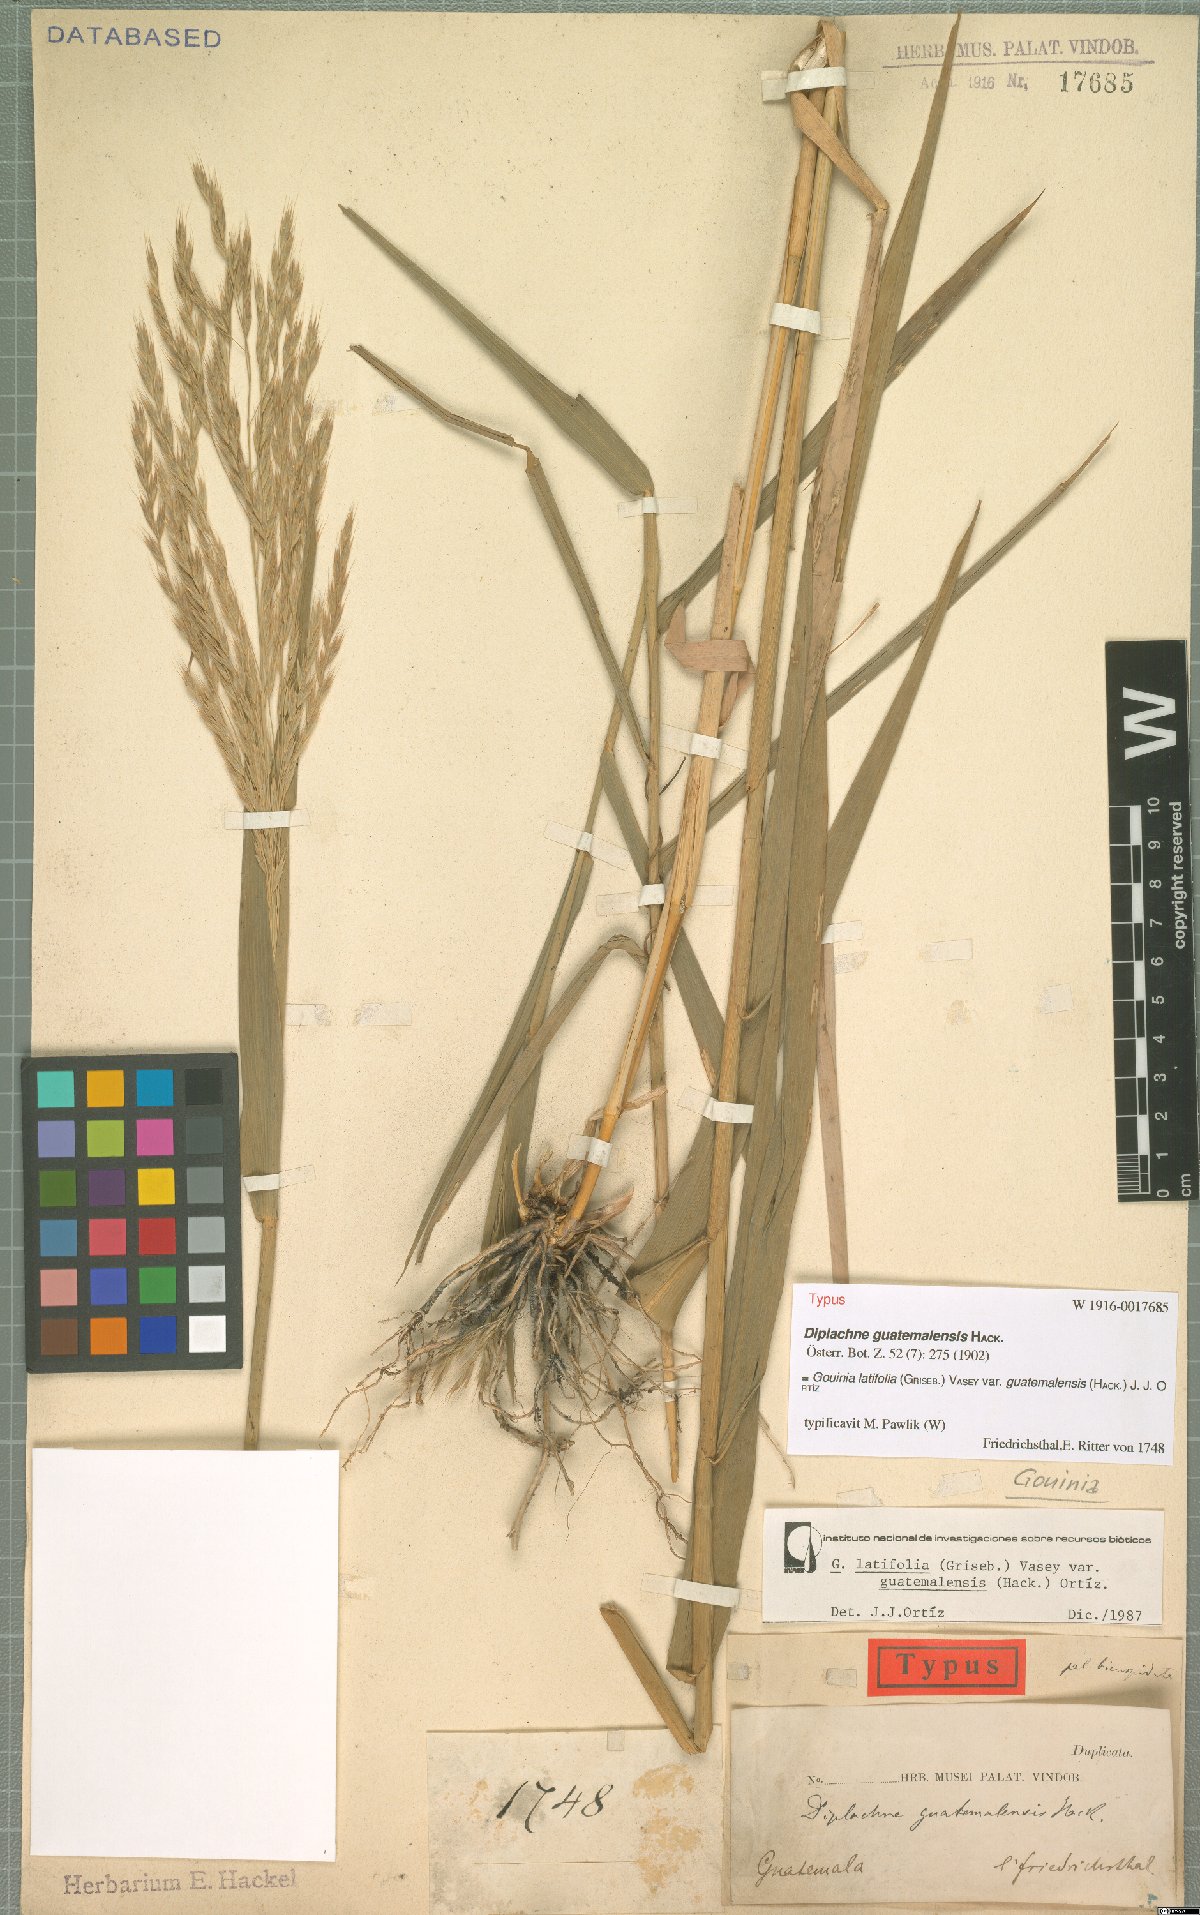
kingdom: Plantae
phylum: Tracheophyta
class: Liliopsida
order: Poales
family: Poaceae
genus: Gouinia
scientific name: Gouinia guatemalensis
